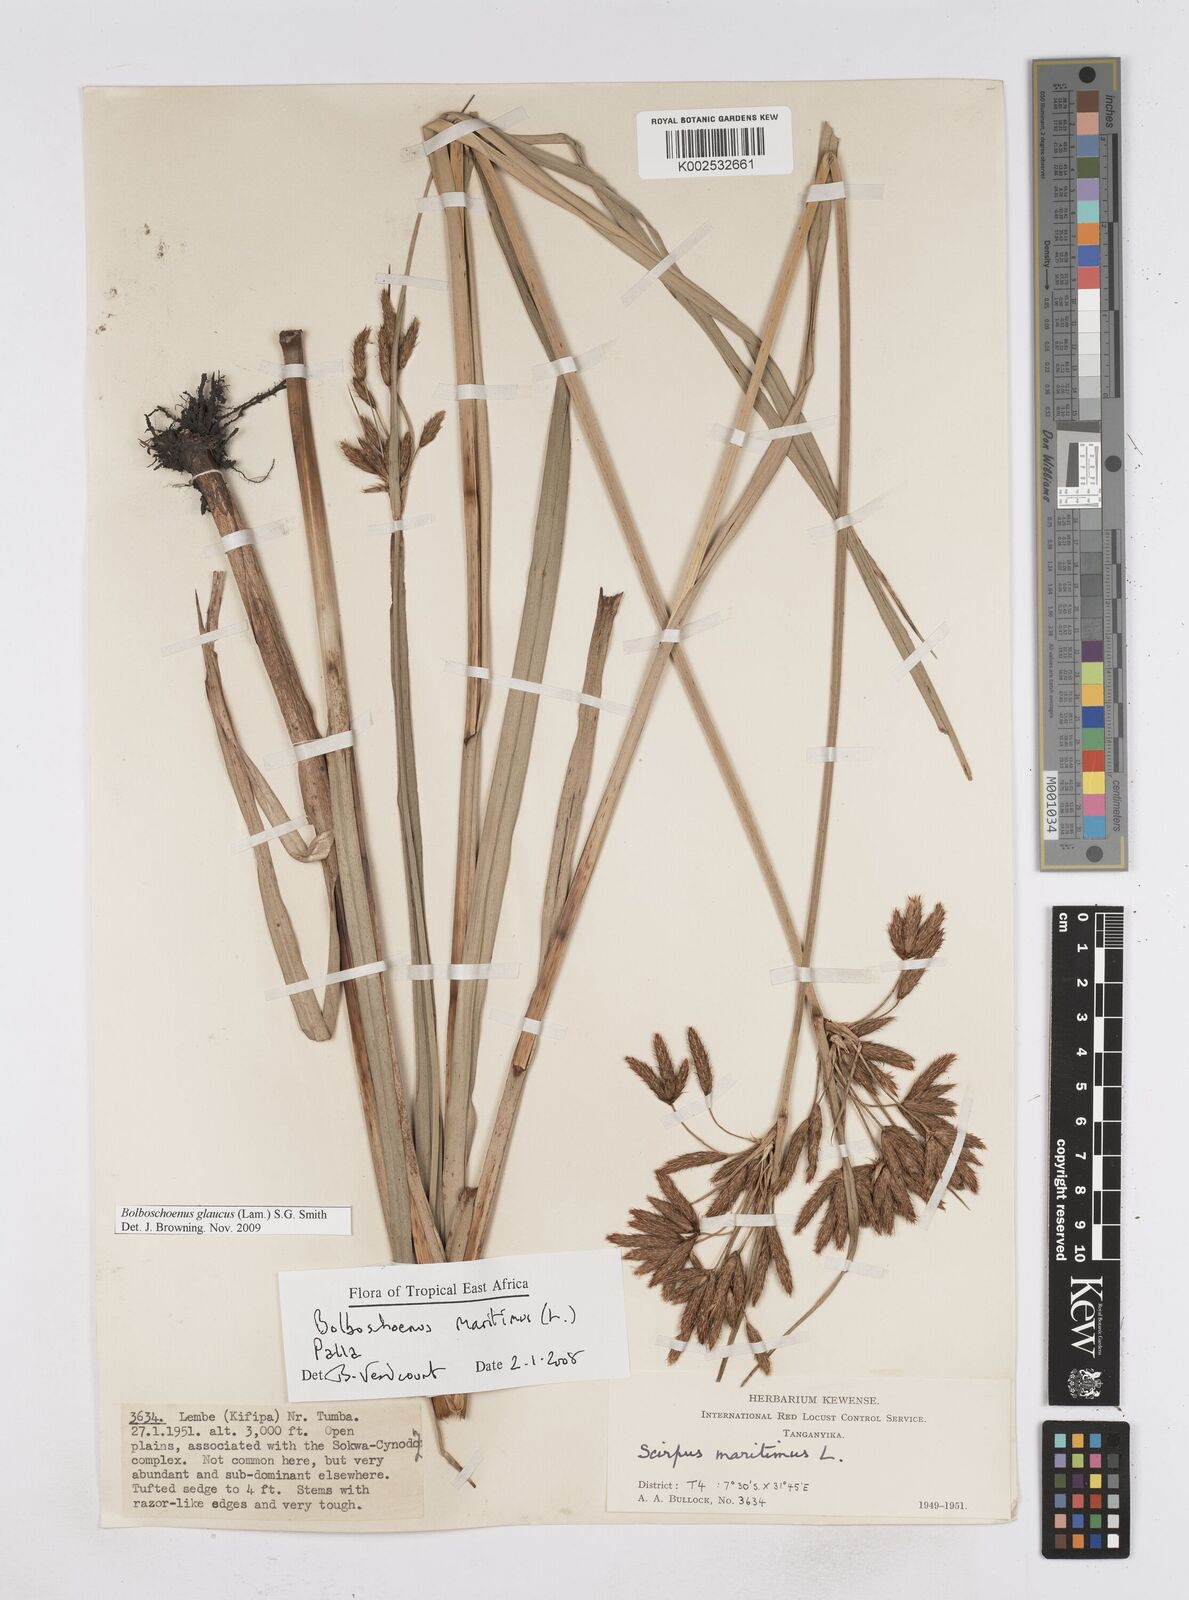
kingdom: Plantae
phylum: Tracheophyta
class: Liliopsida
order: Poales
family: Cyperaceae
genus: Bolboschoenus
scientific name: Bolboschoenus glaucus
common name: Tuberous bulrush
